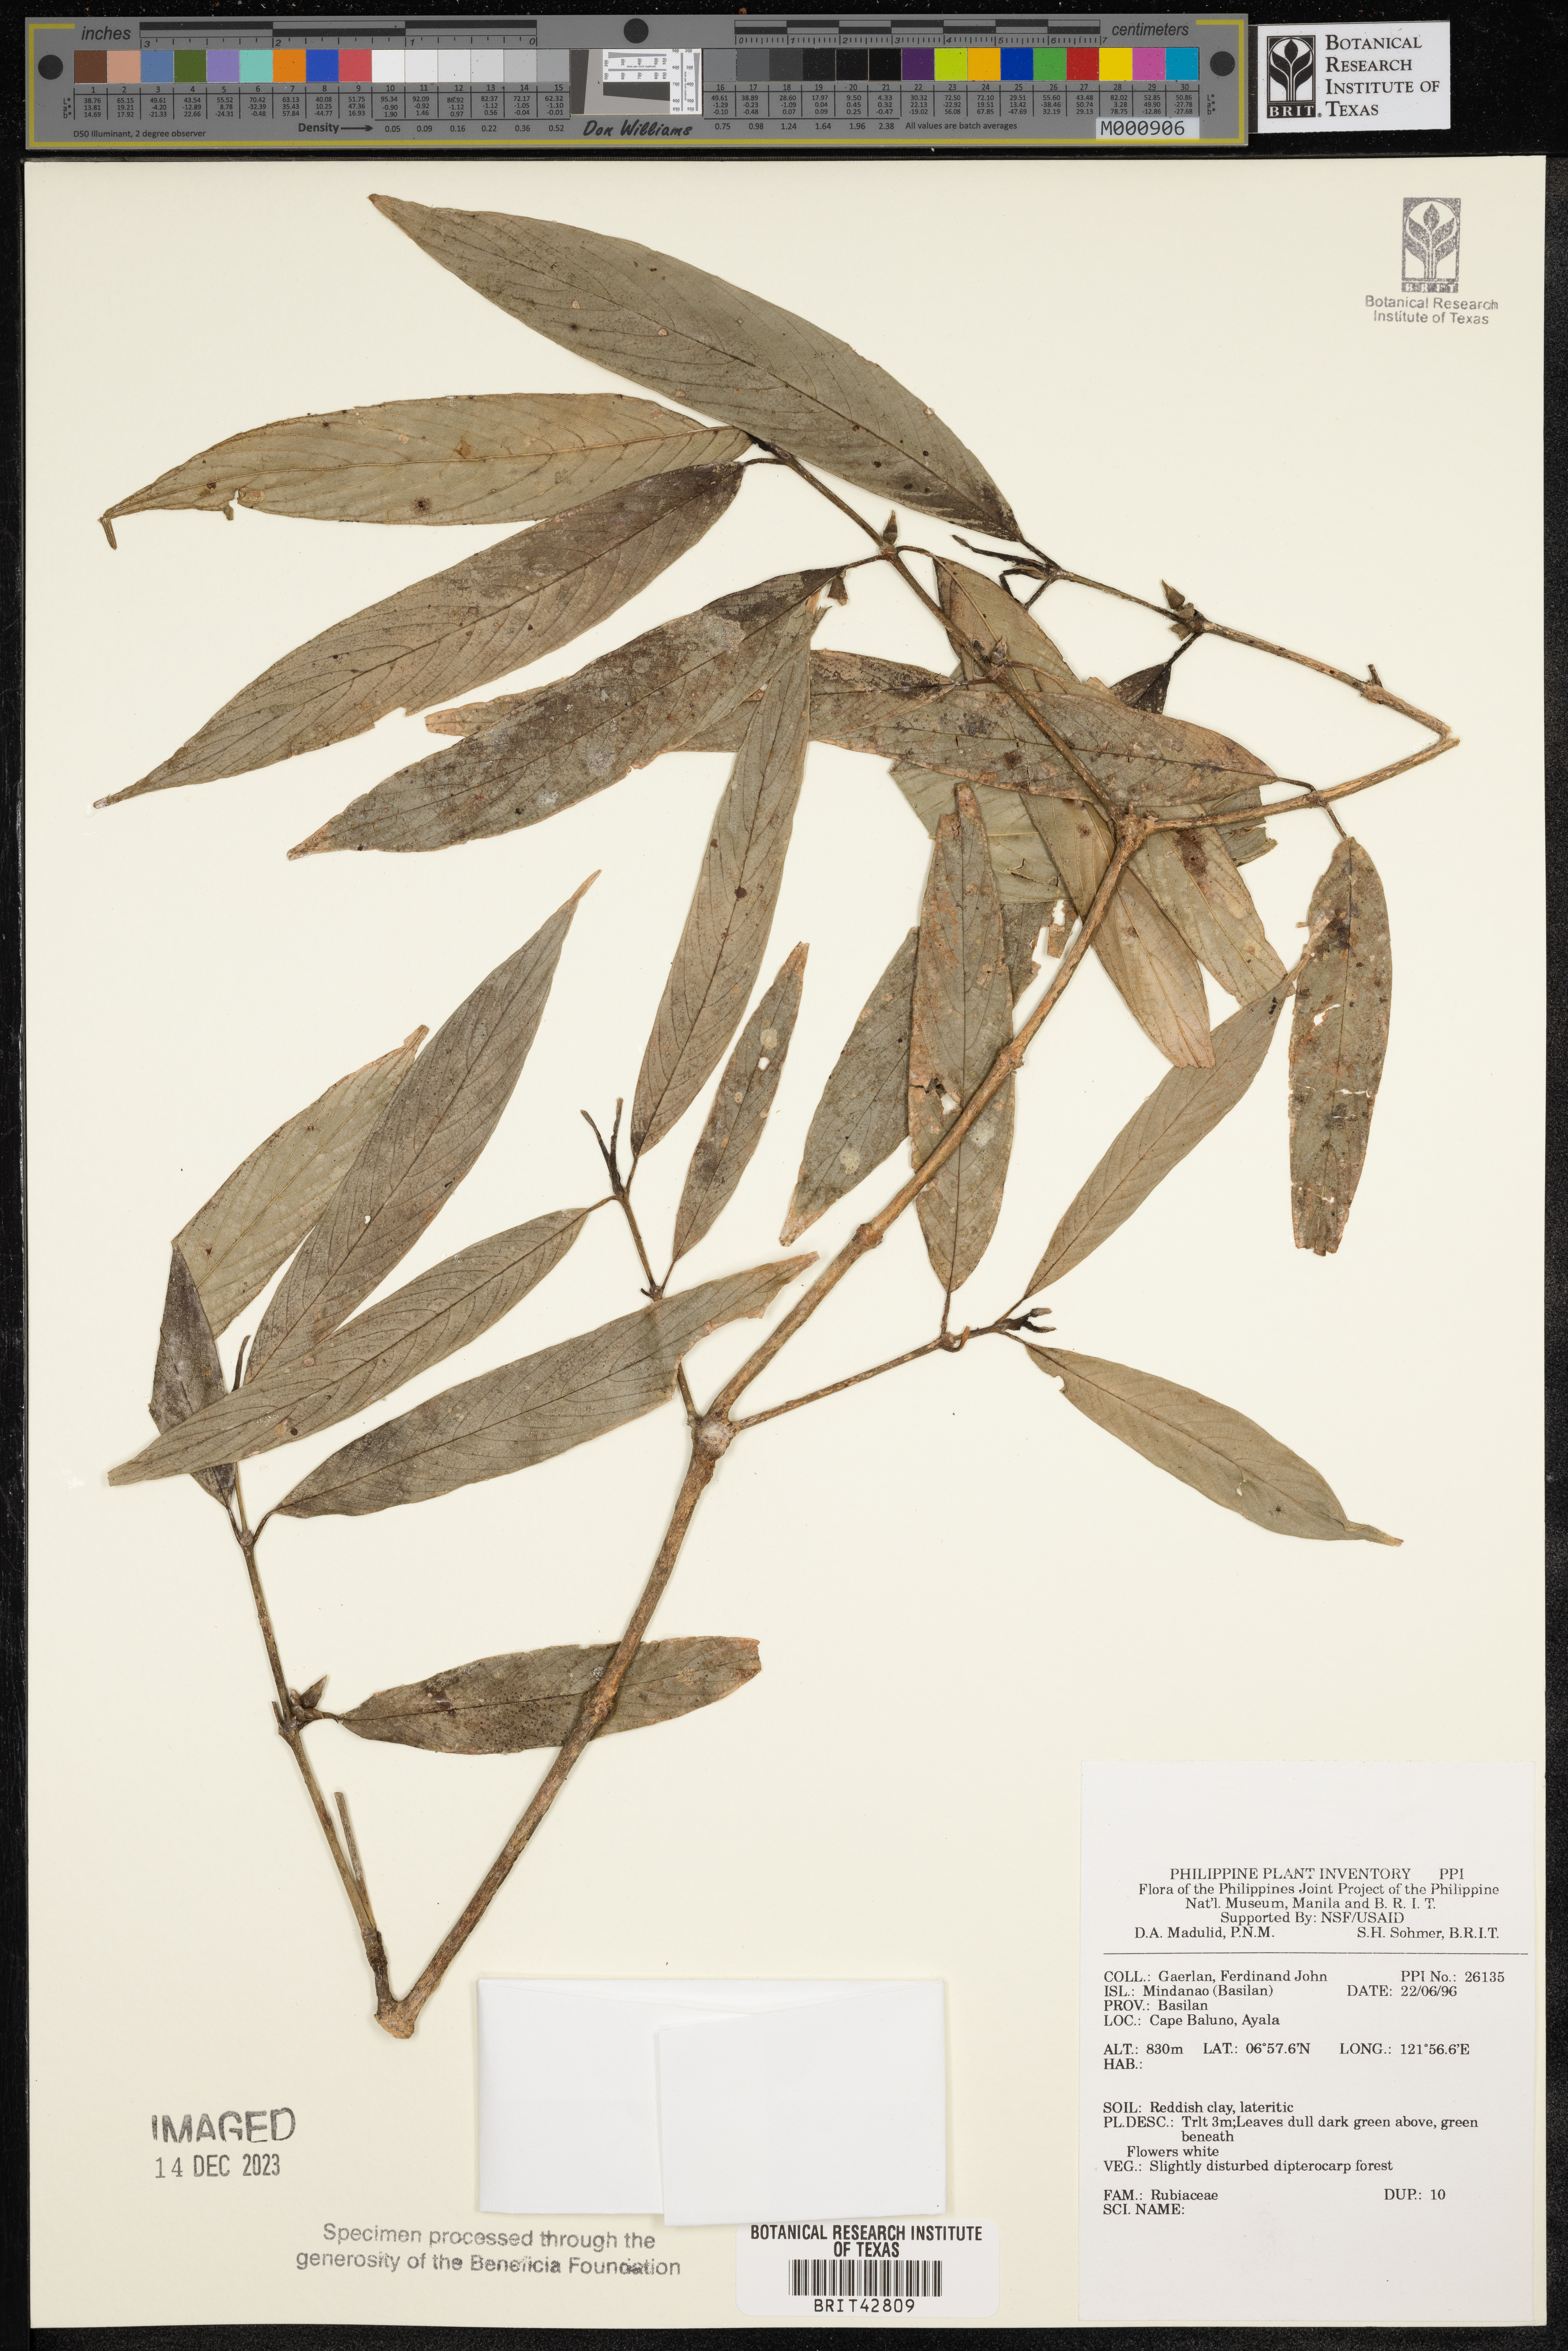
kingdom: Plantae
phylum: Tracheophyta
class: Magnoliopsida
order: Gentianales
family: Rubiaceae
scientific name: Rubiaceae
